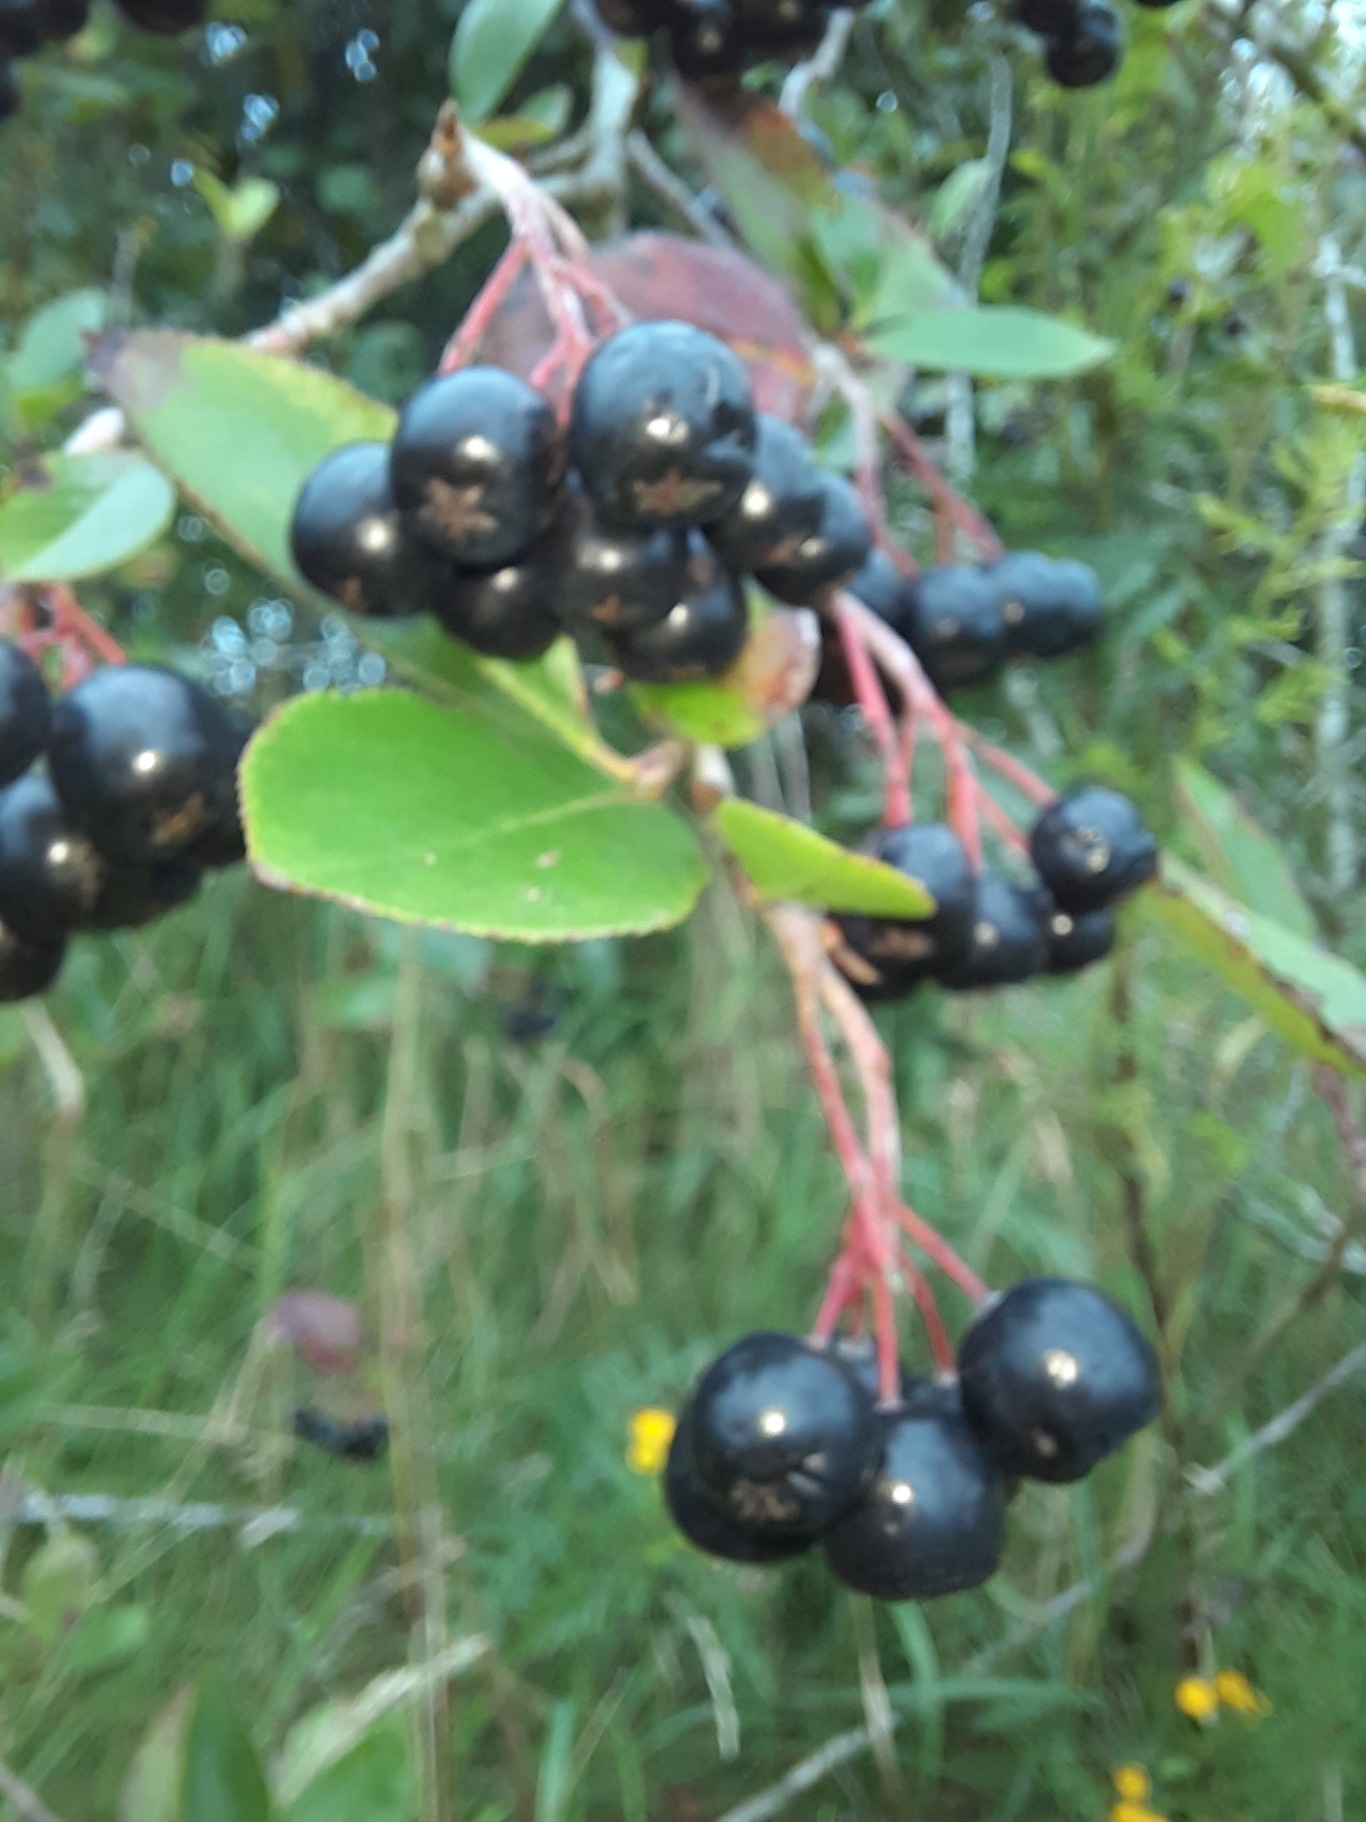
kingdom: Plantae
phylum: Tracheophyta
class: Magnoliopsida
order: Rosales
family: Rosaceae
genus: Aronia
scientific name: Aronia melanocarpa
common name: Sortfrugtet surbær
